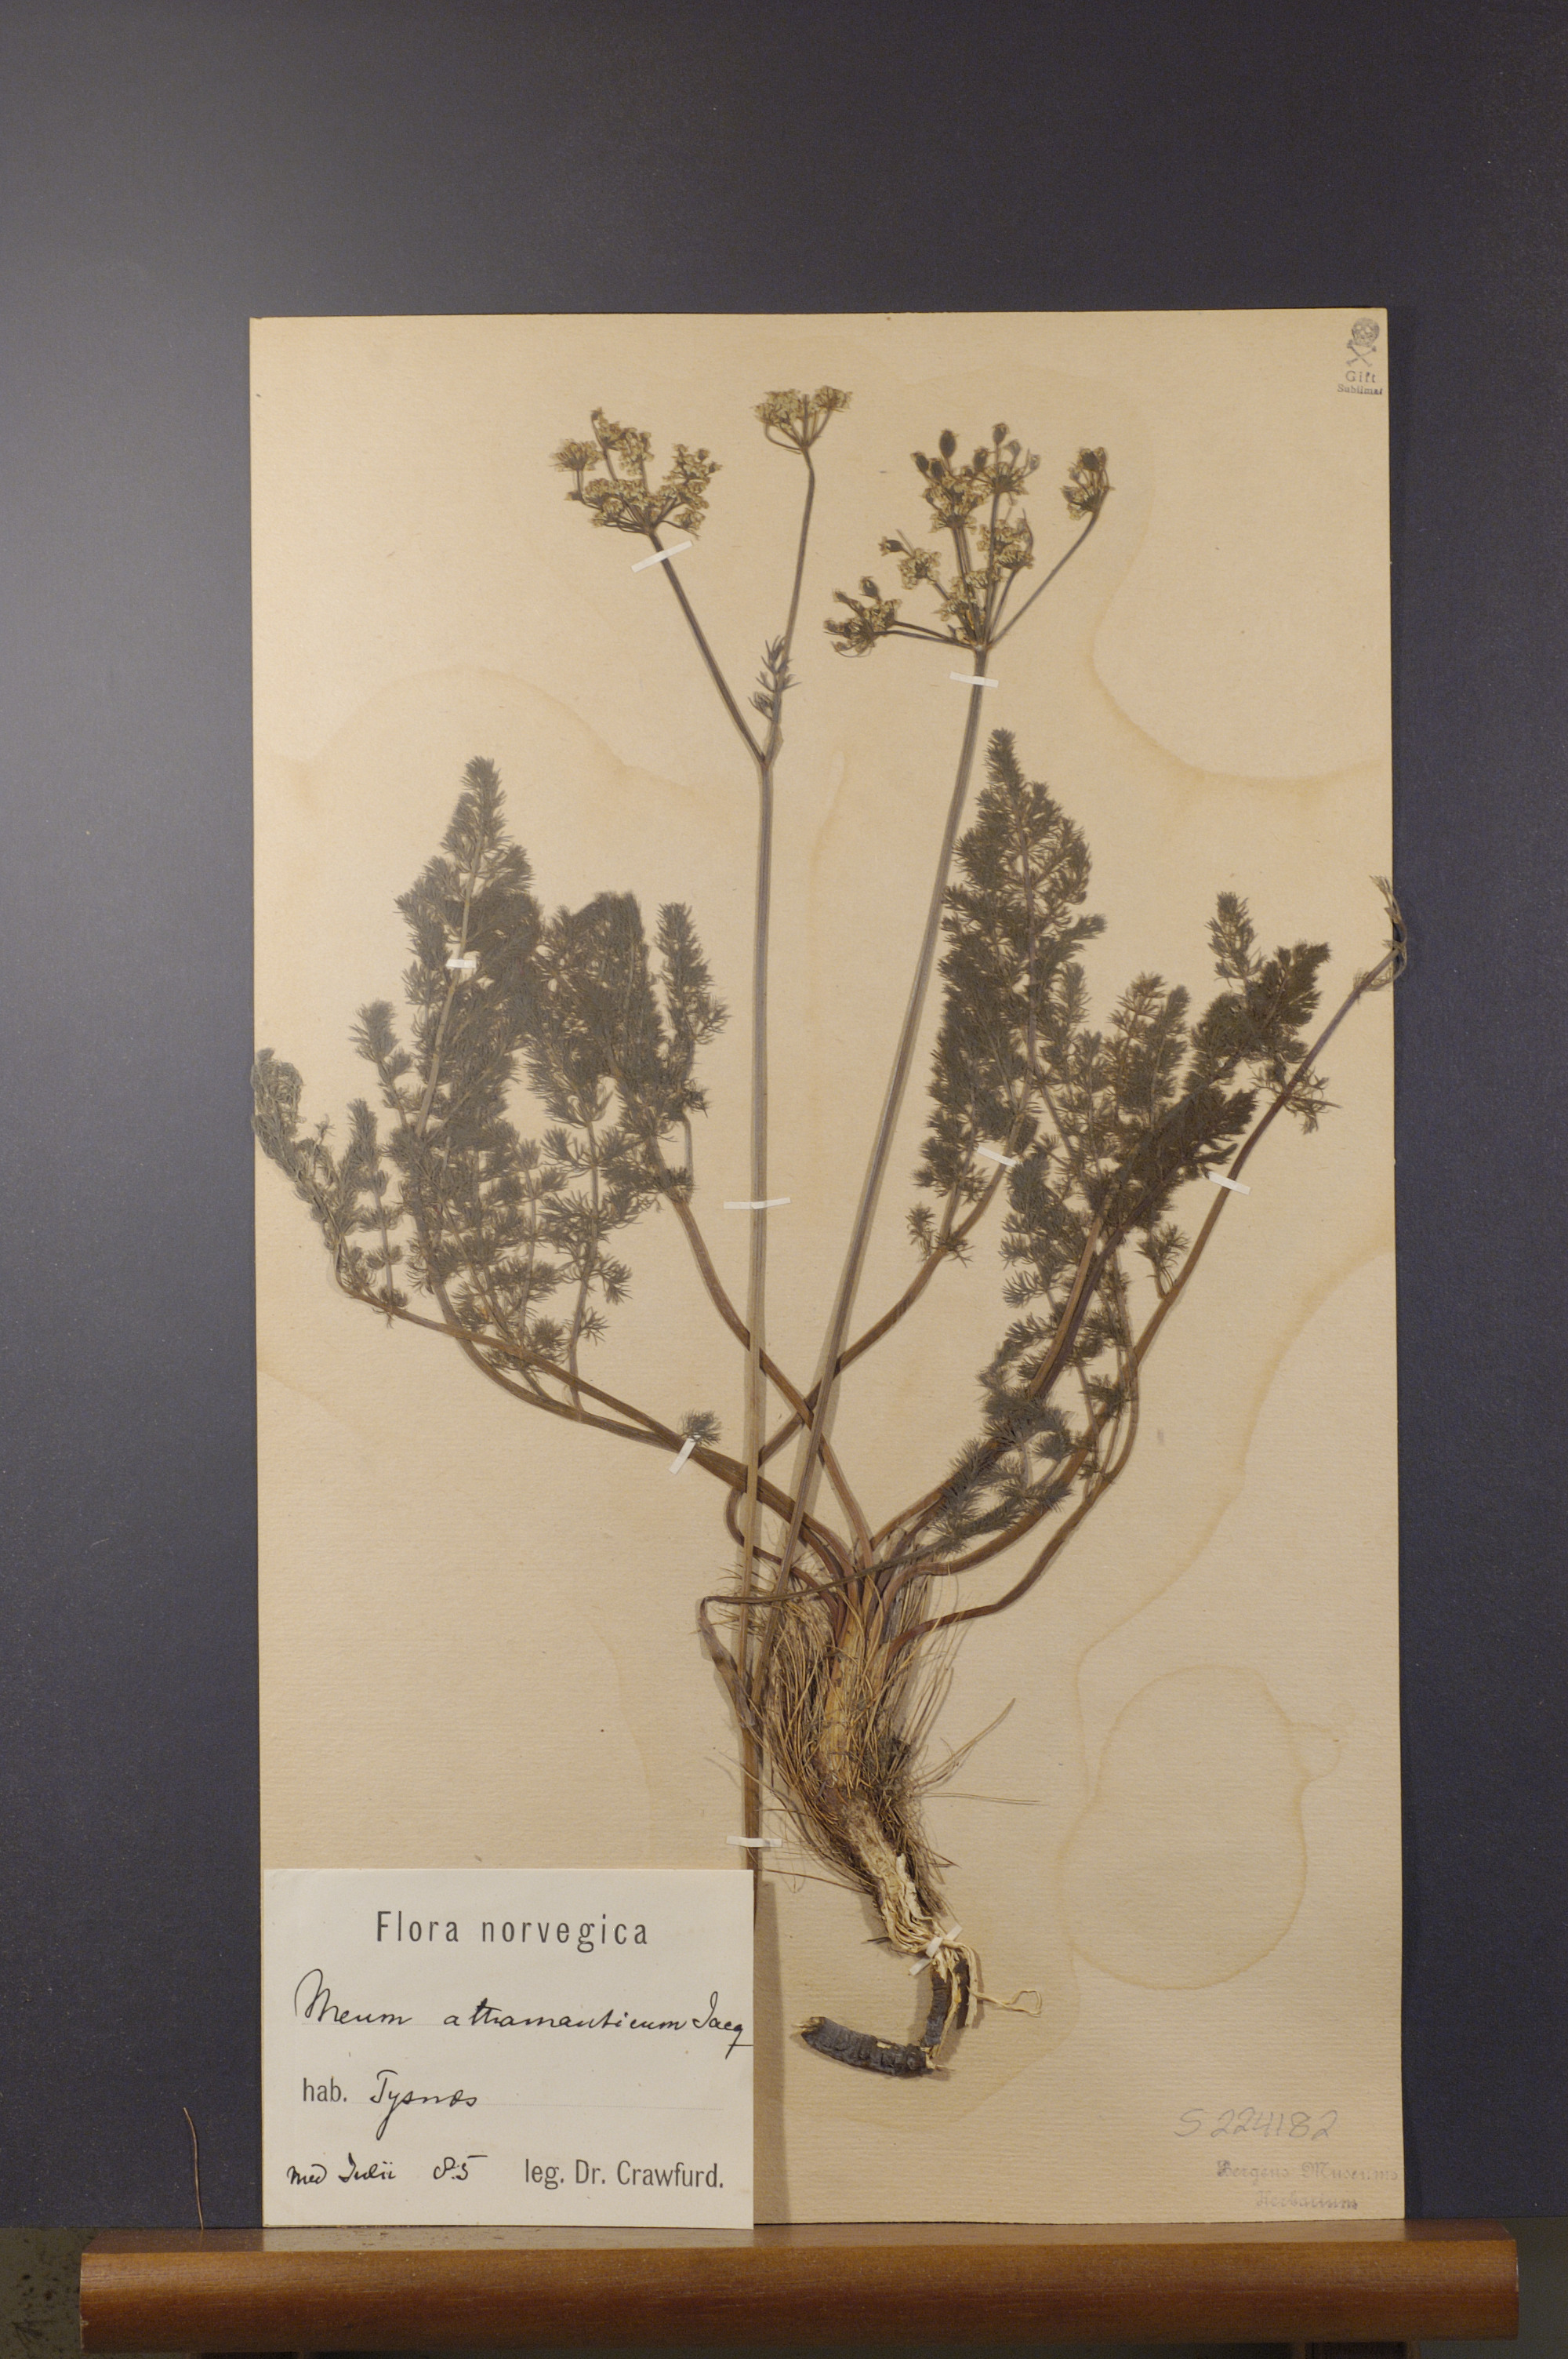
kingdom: Plantae
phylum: Tracheophyta
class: Magnoliopsida
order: Apiales
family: Apiaceae
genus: Meum
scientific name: Meum athamanticum
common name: Spignel
